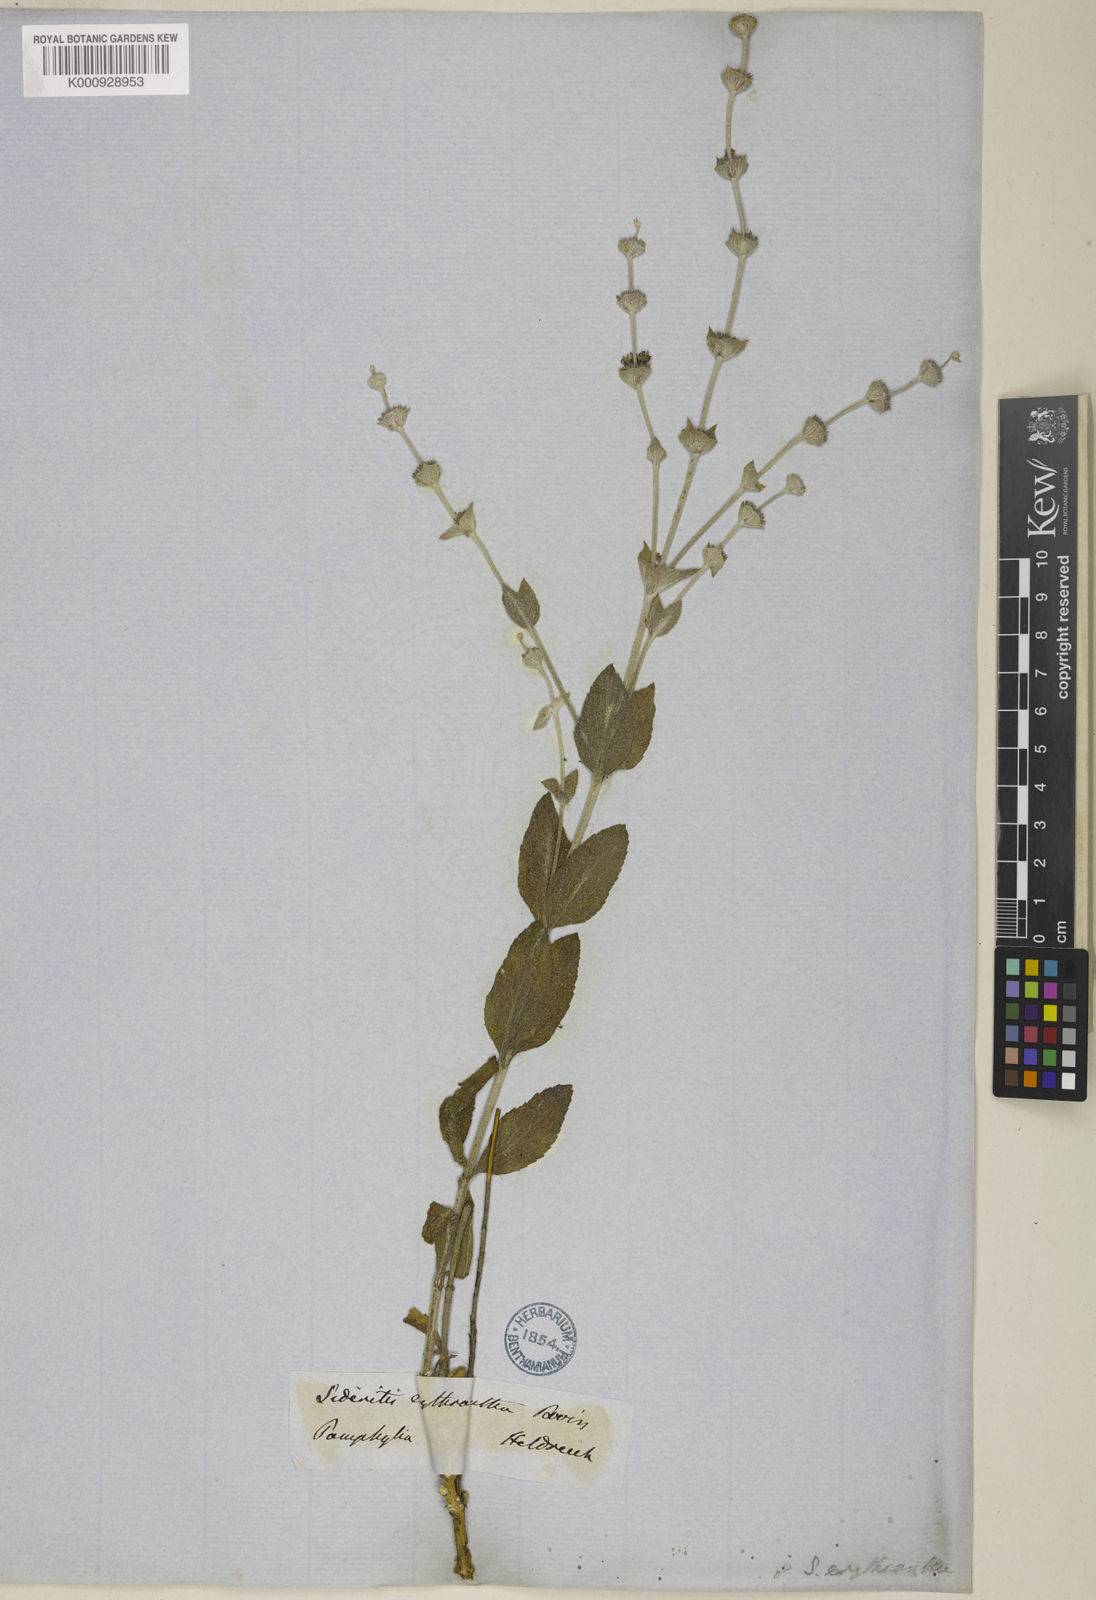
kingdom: Plantae
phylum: Tracheophyta
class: Magnoliopsida
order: Lamiales
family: Lamiaceae
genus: Sideritis
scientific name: Sideritis erythrantha
